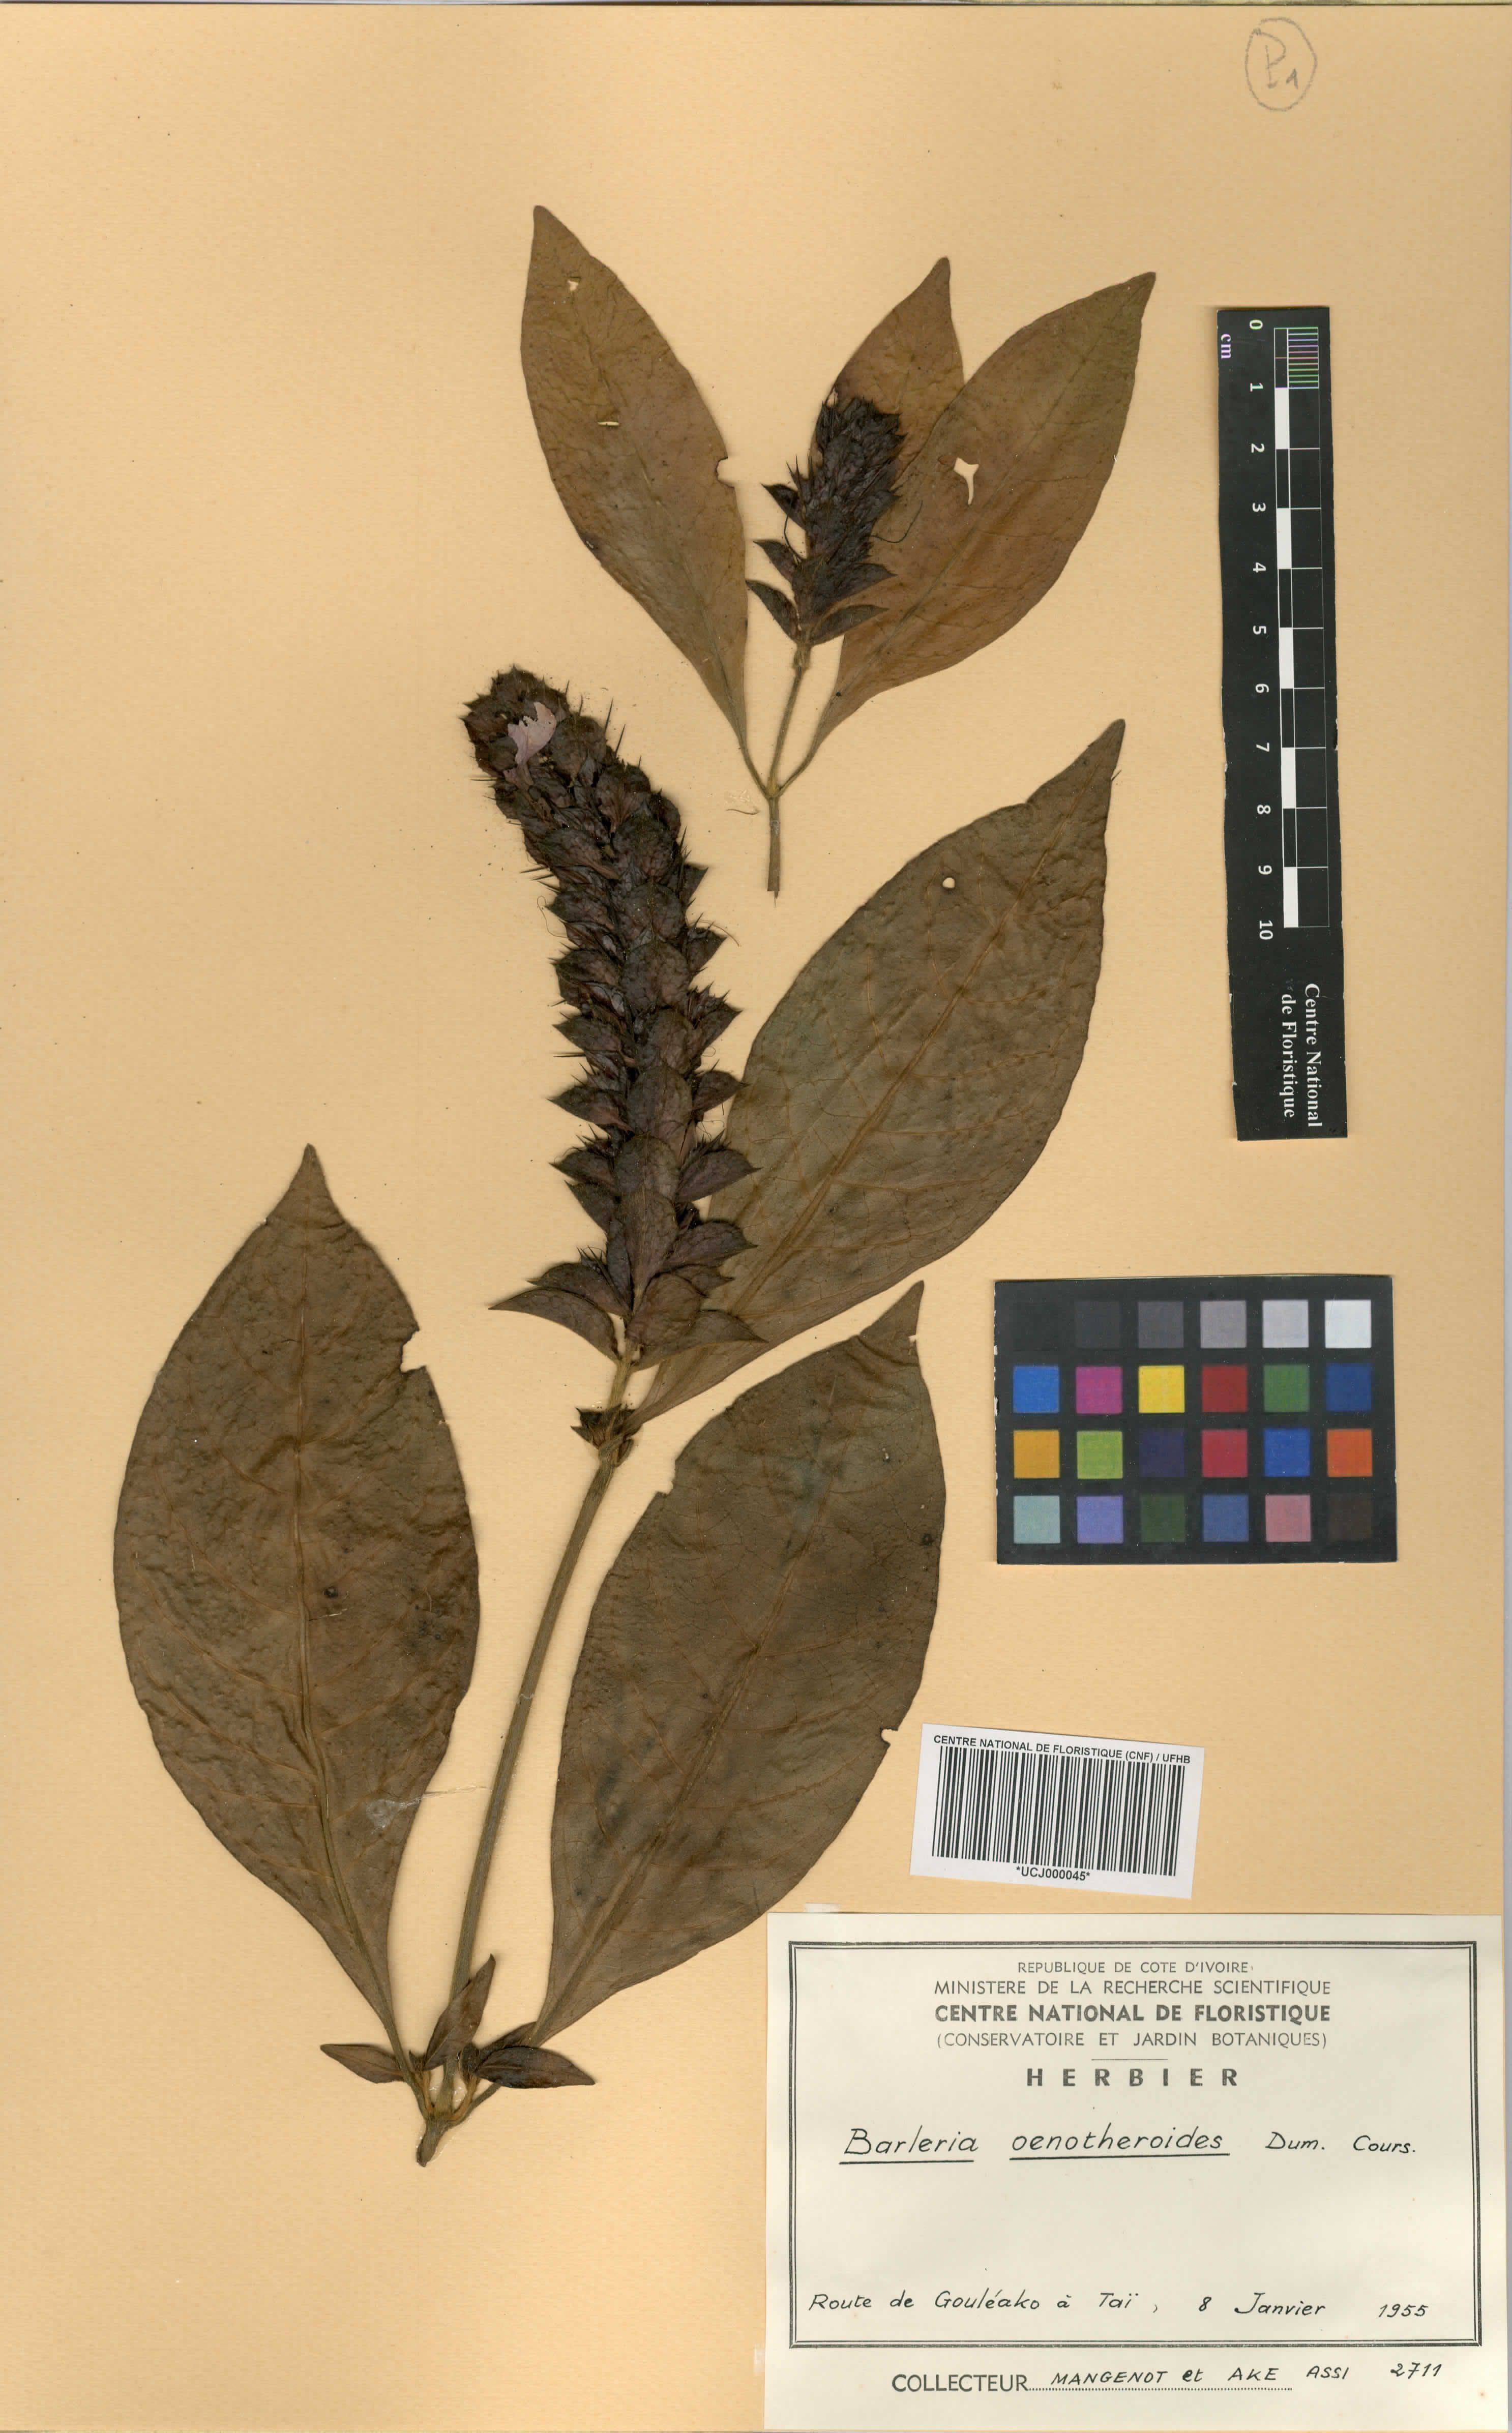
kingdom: Plantae
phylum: Tracheophyta
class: Magnoliopsida
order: Lamiales
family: Acanthaceae
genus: Barleria
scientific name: Barleria oenotheroides
